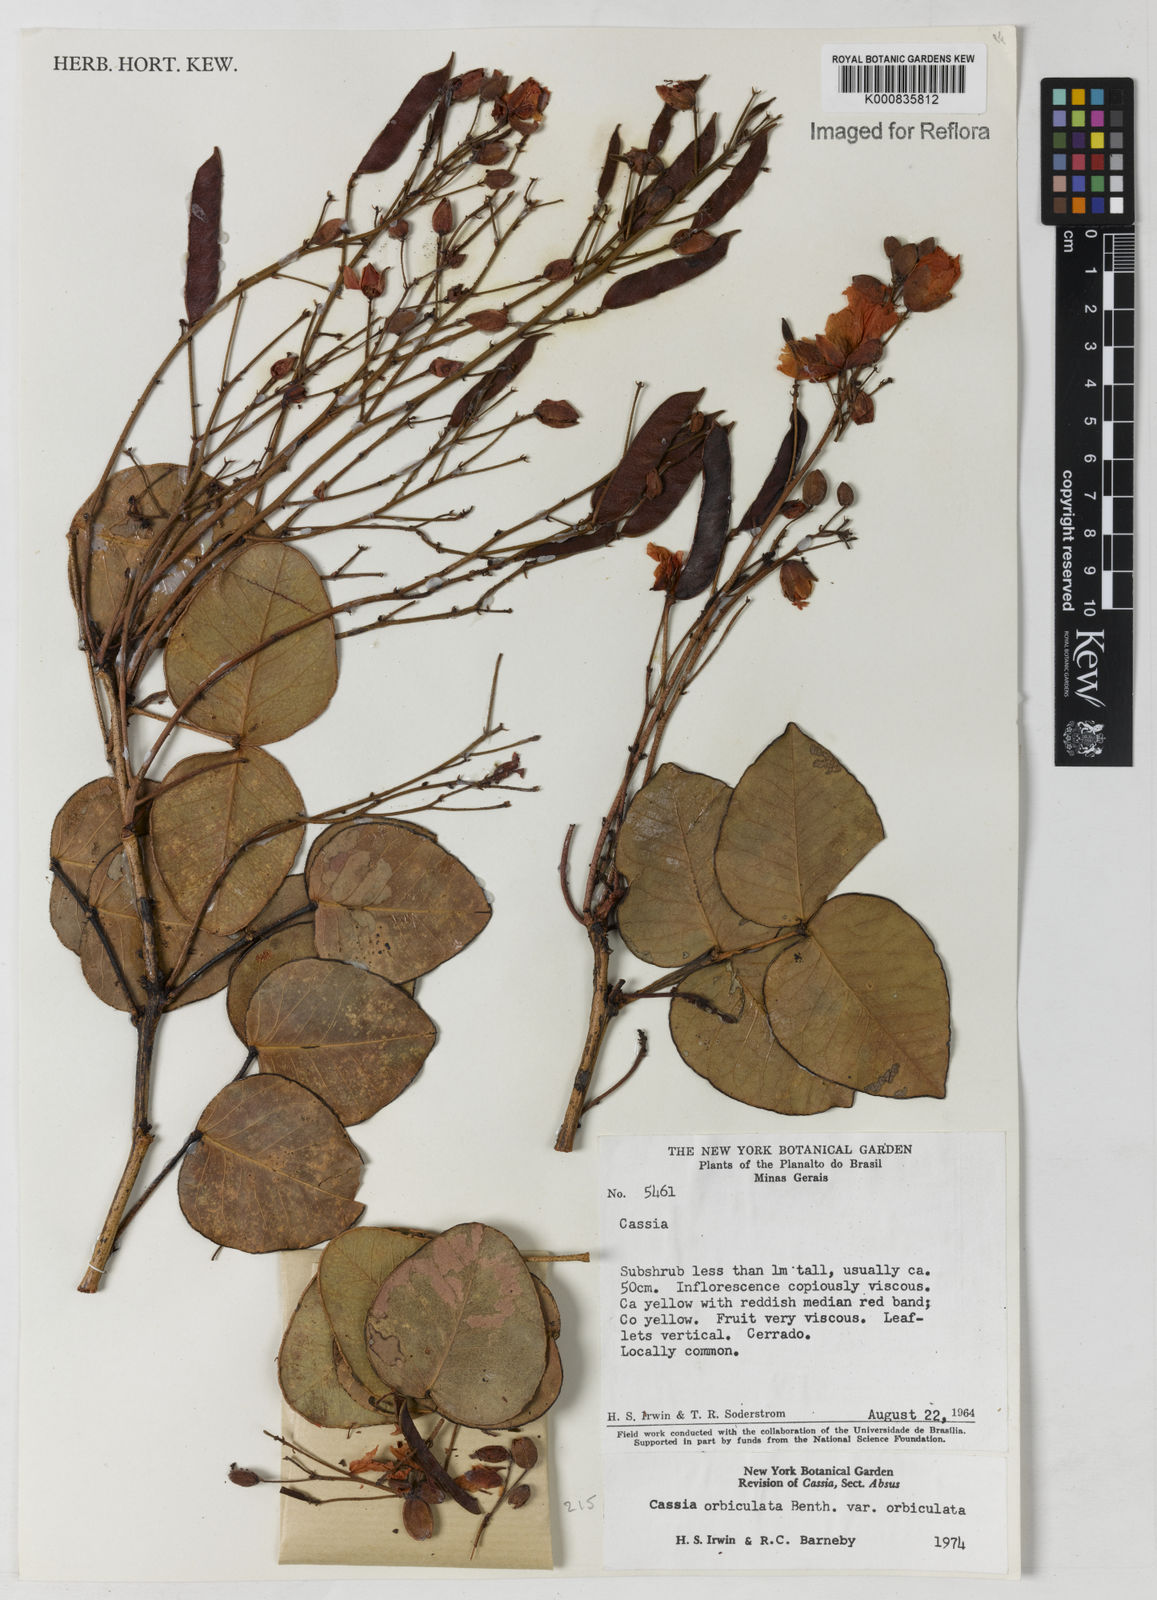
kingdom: Plantae
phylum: Tracheophyta
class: Magnoliopsida
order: Fabales
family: Fabaceae
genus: Chamaecrista
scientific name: Chamaecrista orbiculata
